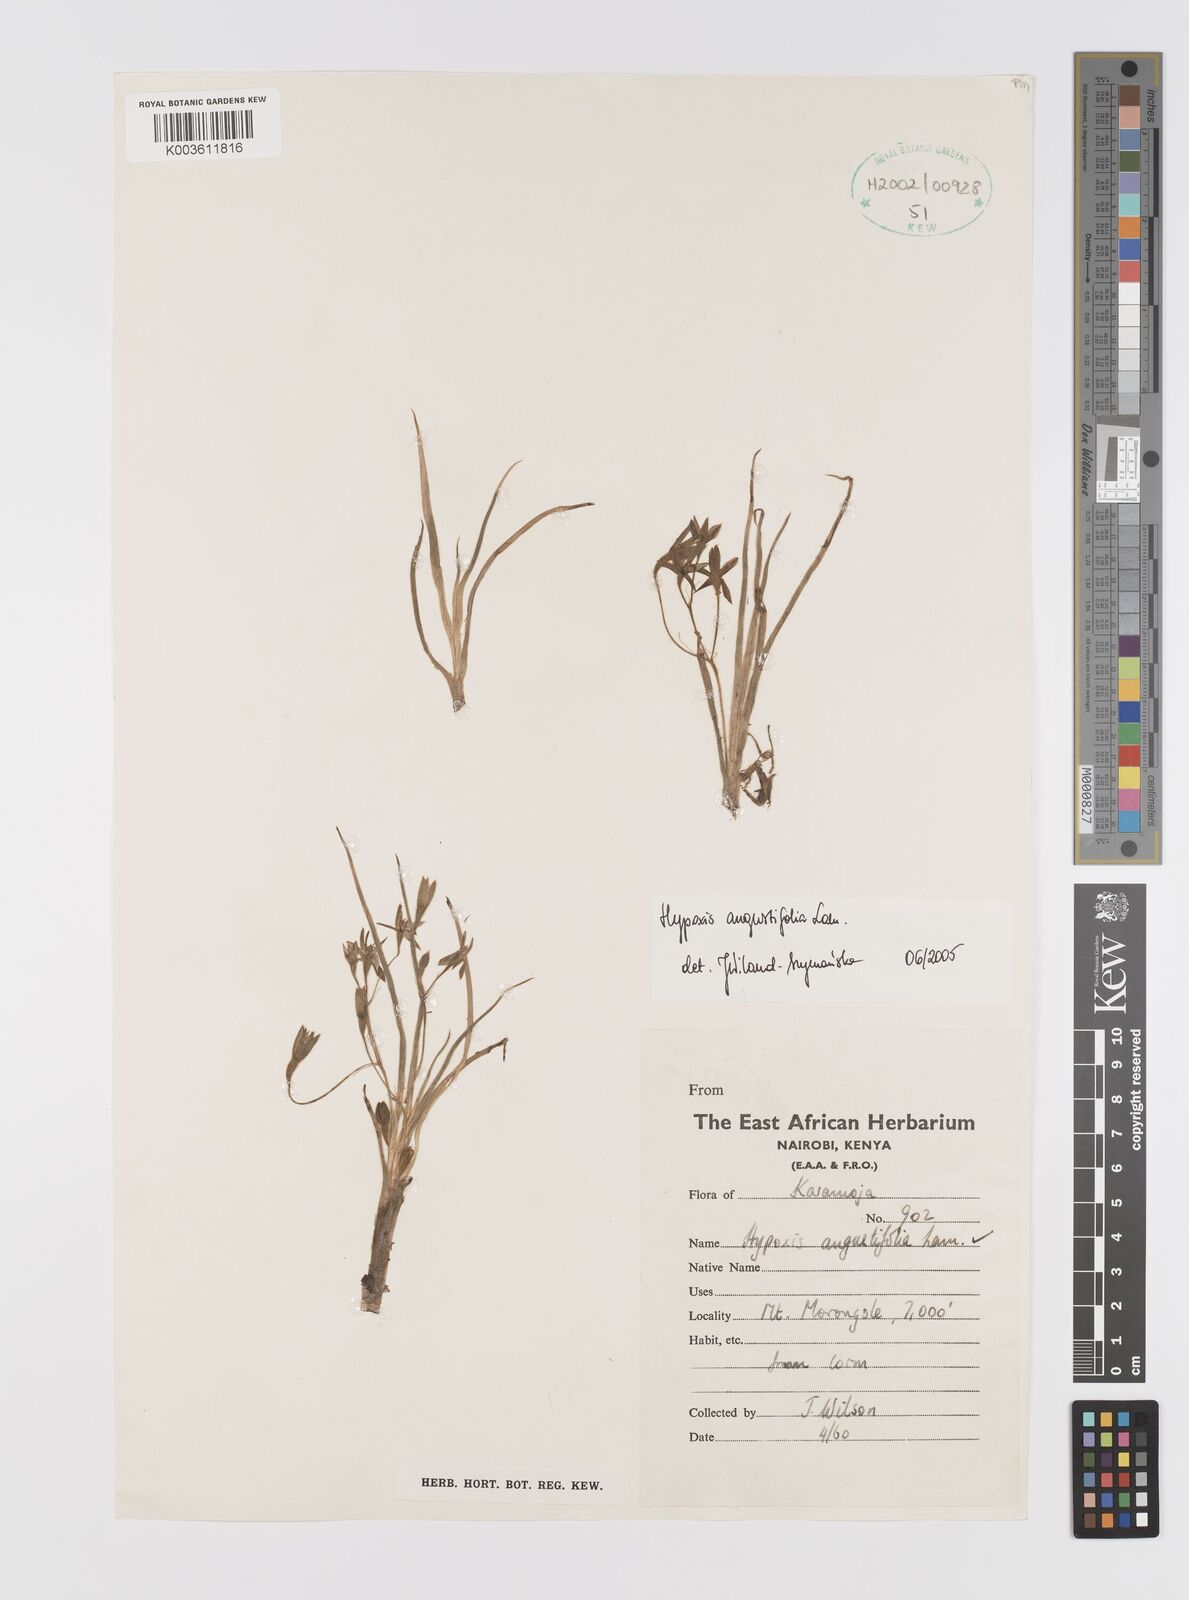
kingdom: Plantae
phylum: Tracheophyta
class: Liliopsida
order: Asparagales
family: Hypoxidaceae
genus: Hypoxis
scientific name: Hypoxis angustifolia
